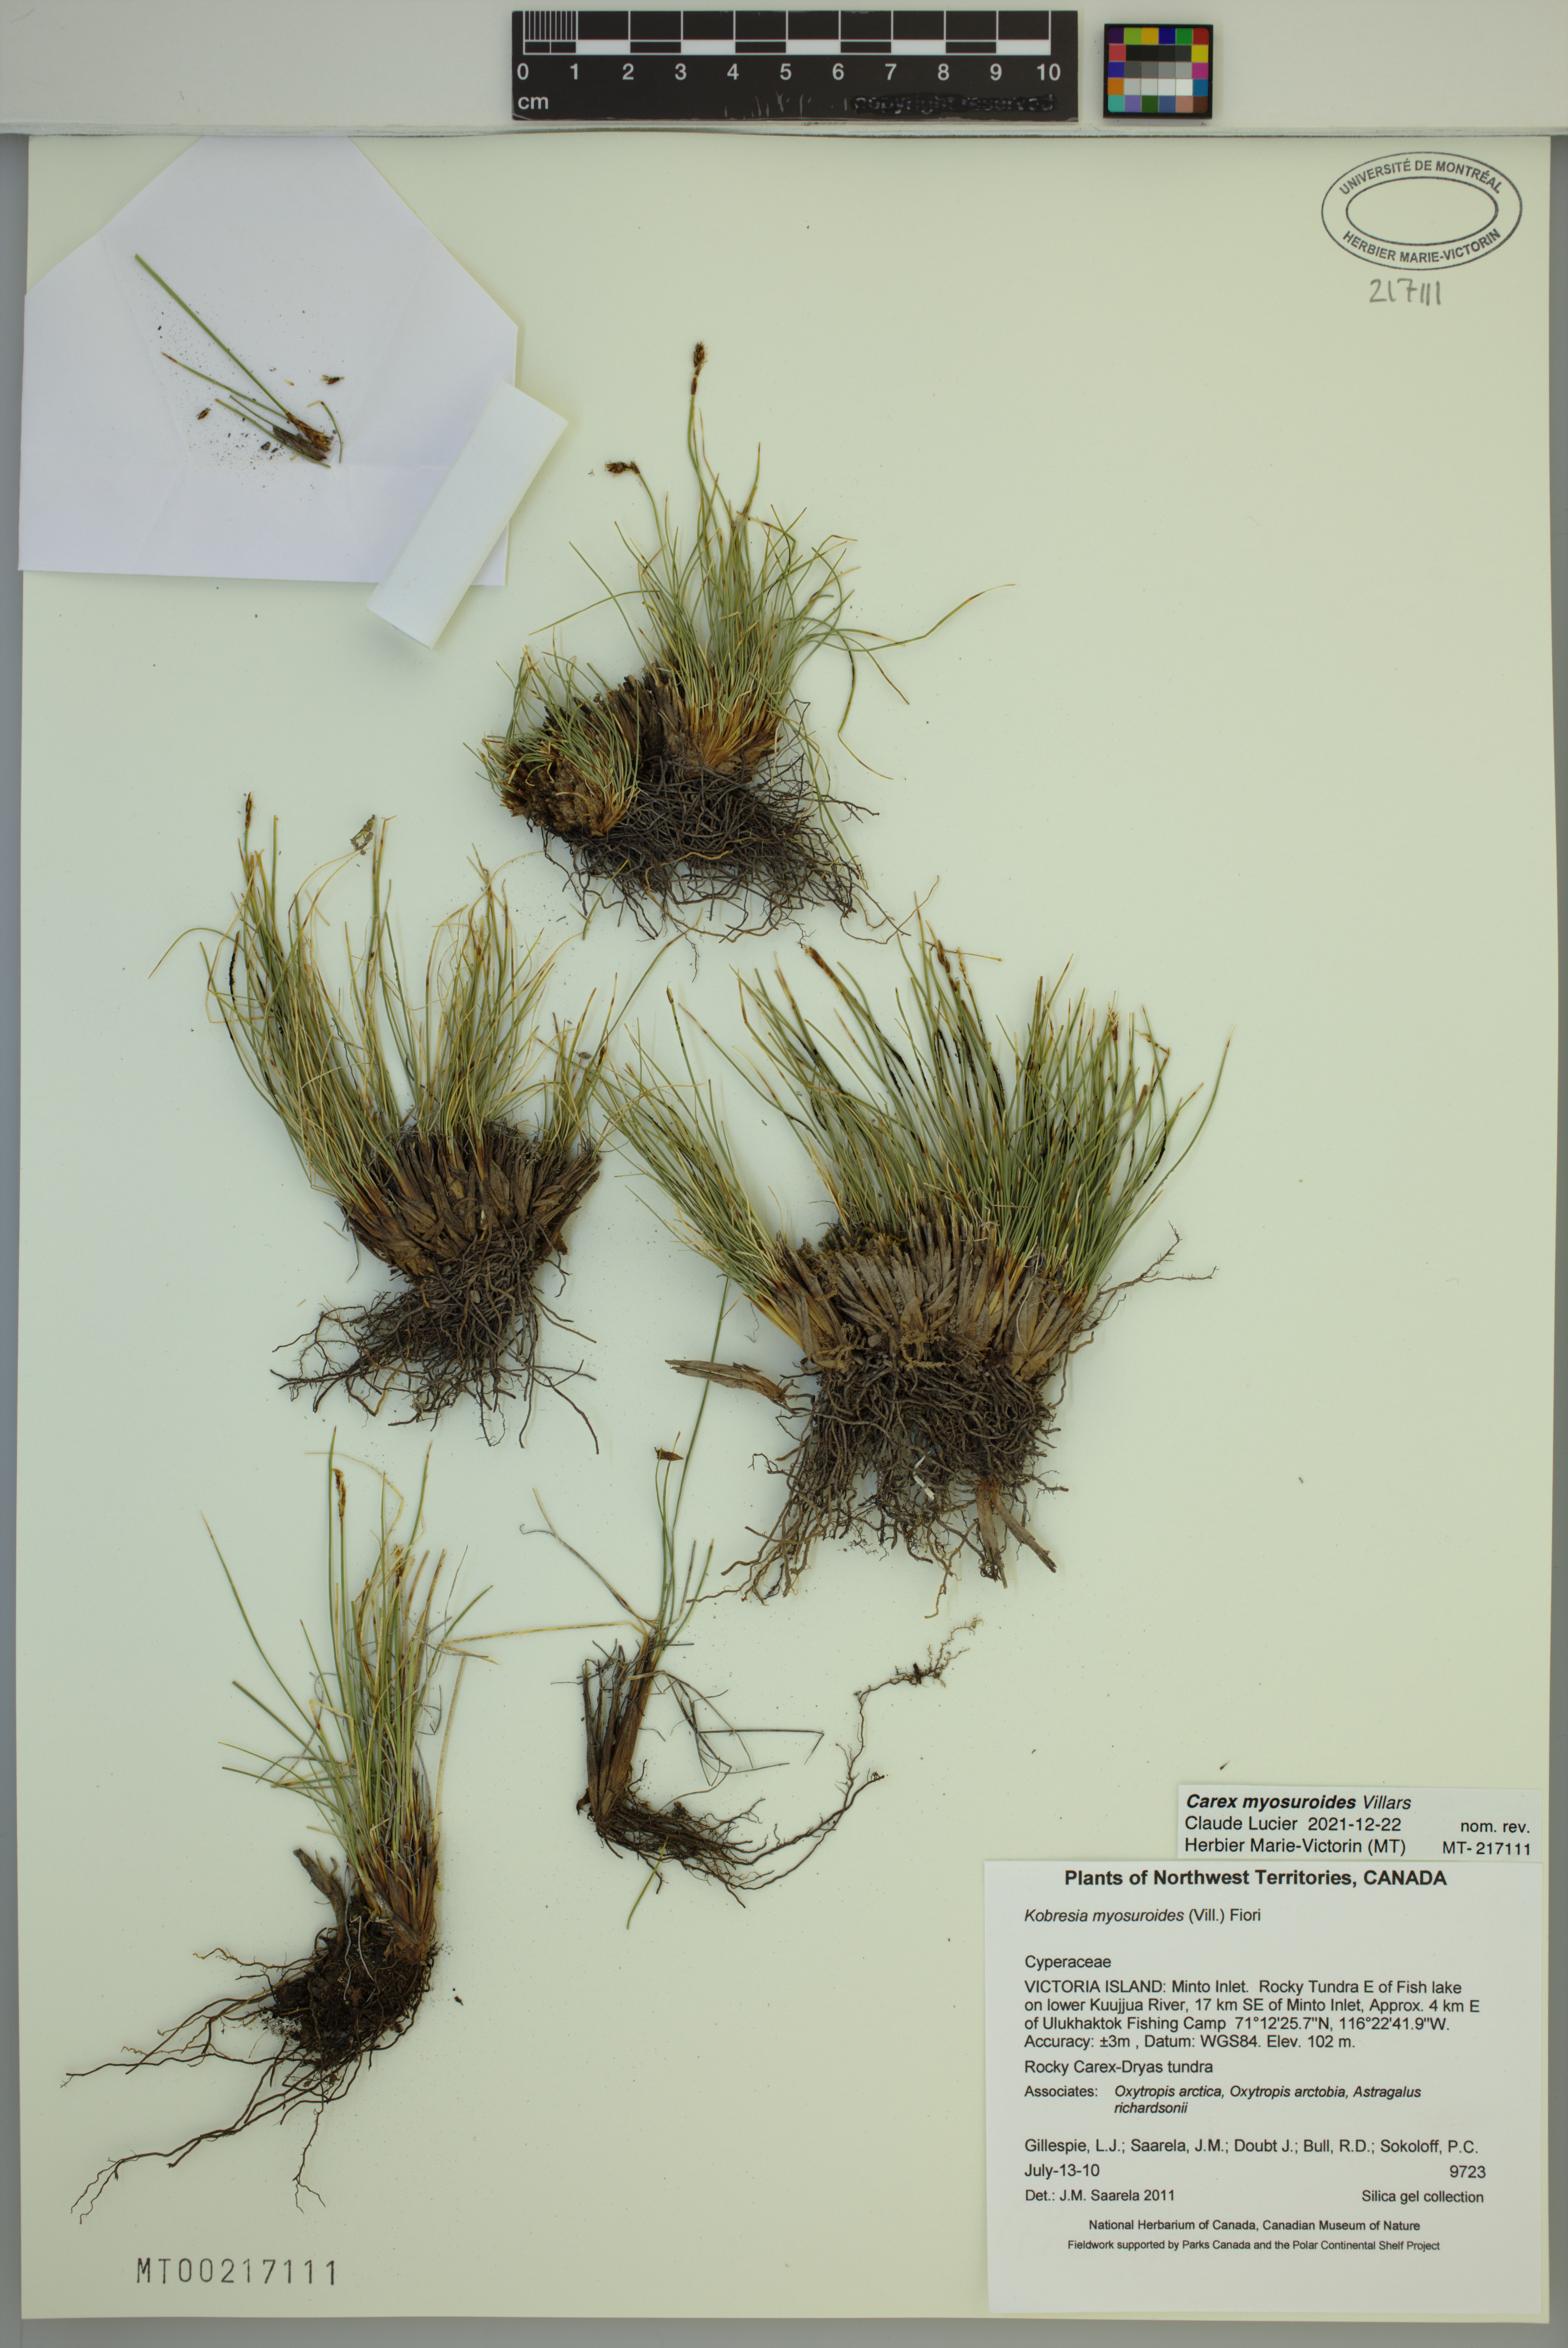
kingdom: Plantae
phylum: Tracheophyta
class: Liliopsida
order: Poales
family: Cyperaceae
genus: Carex
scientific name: Carex myosuroides
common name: Bellard's bog sedge
